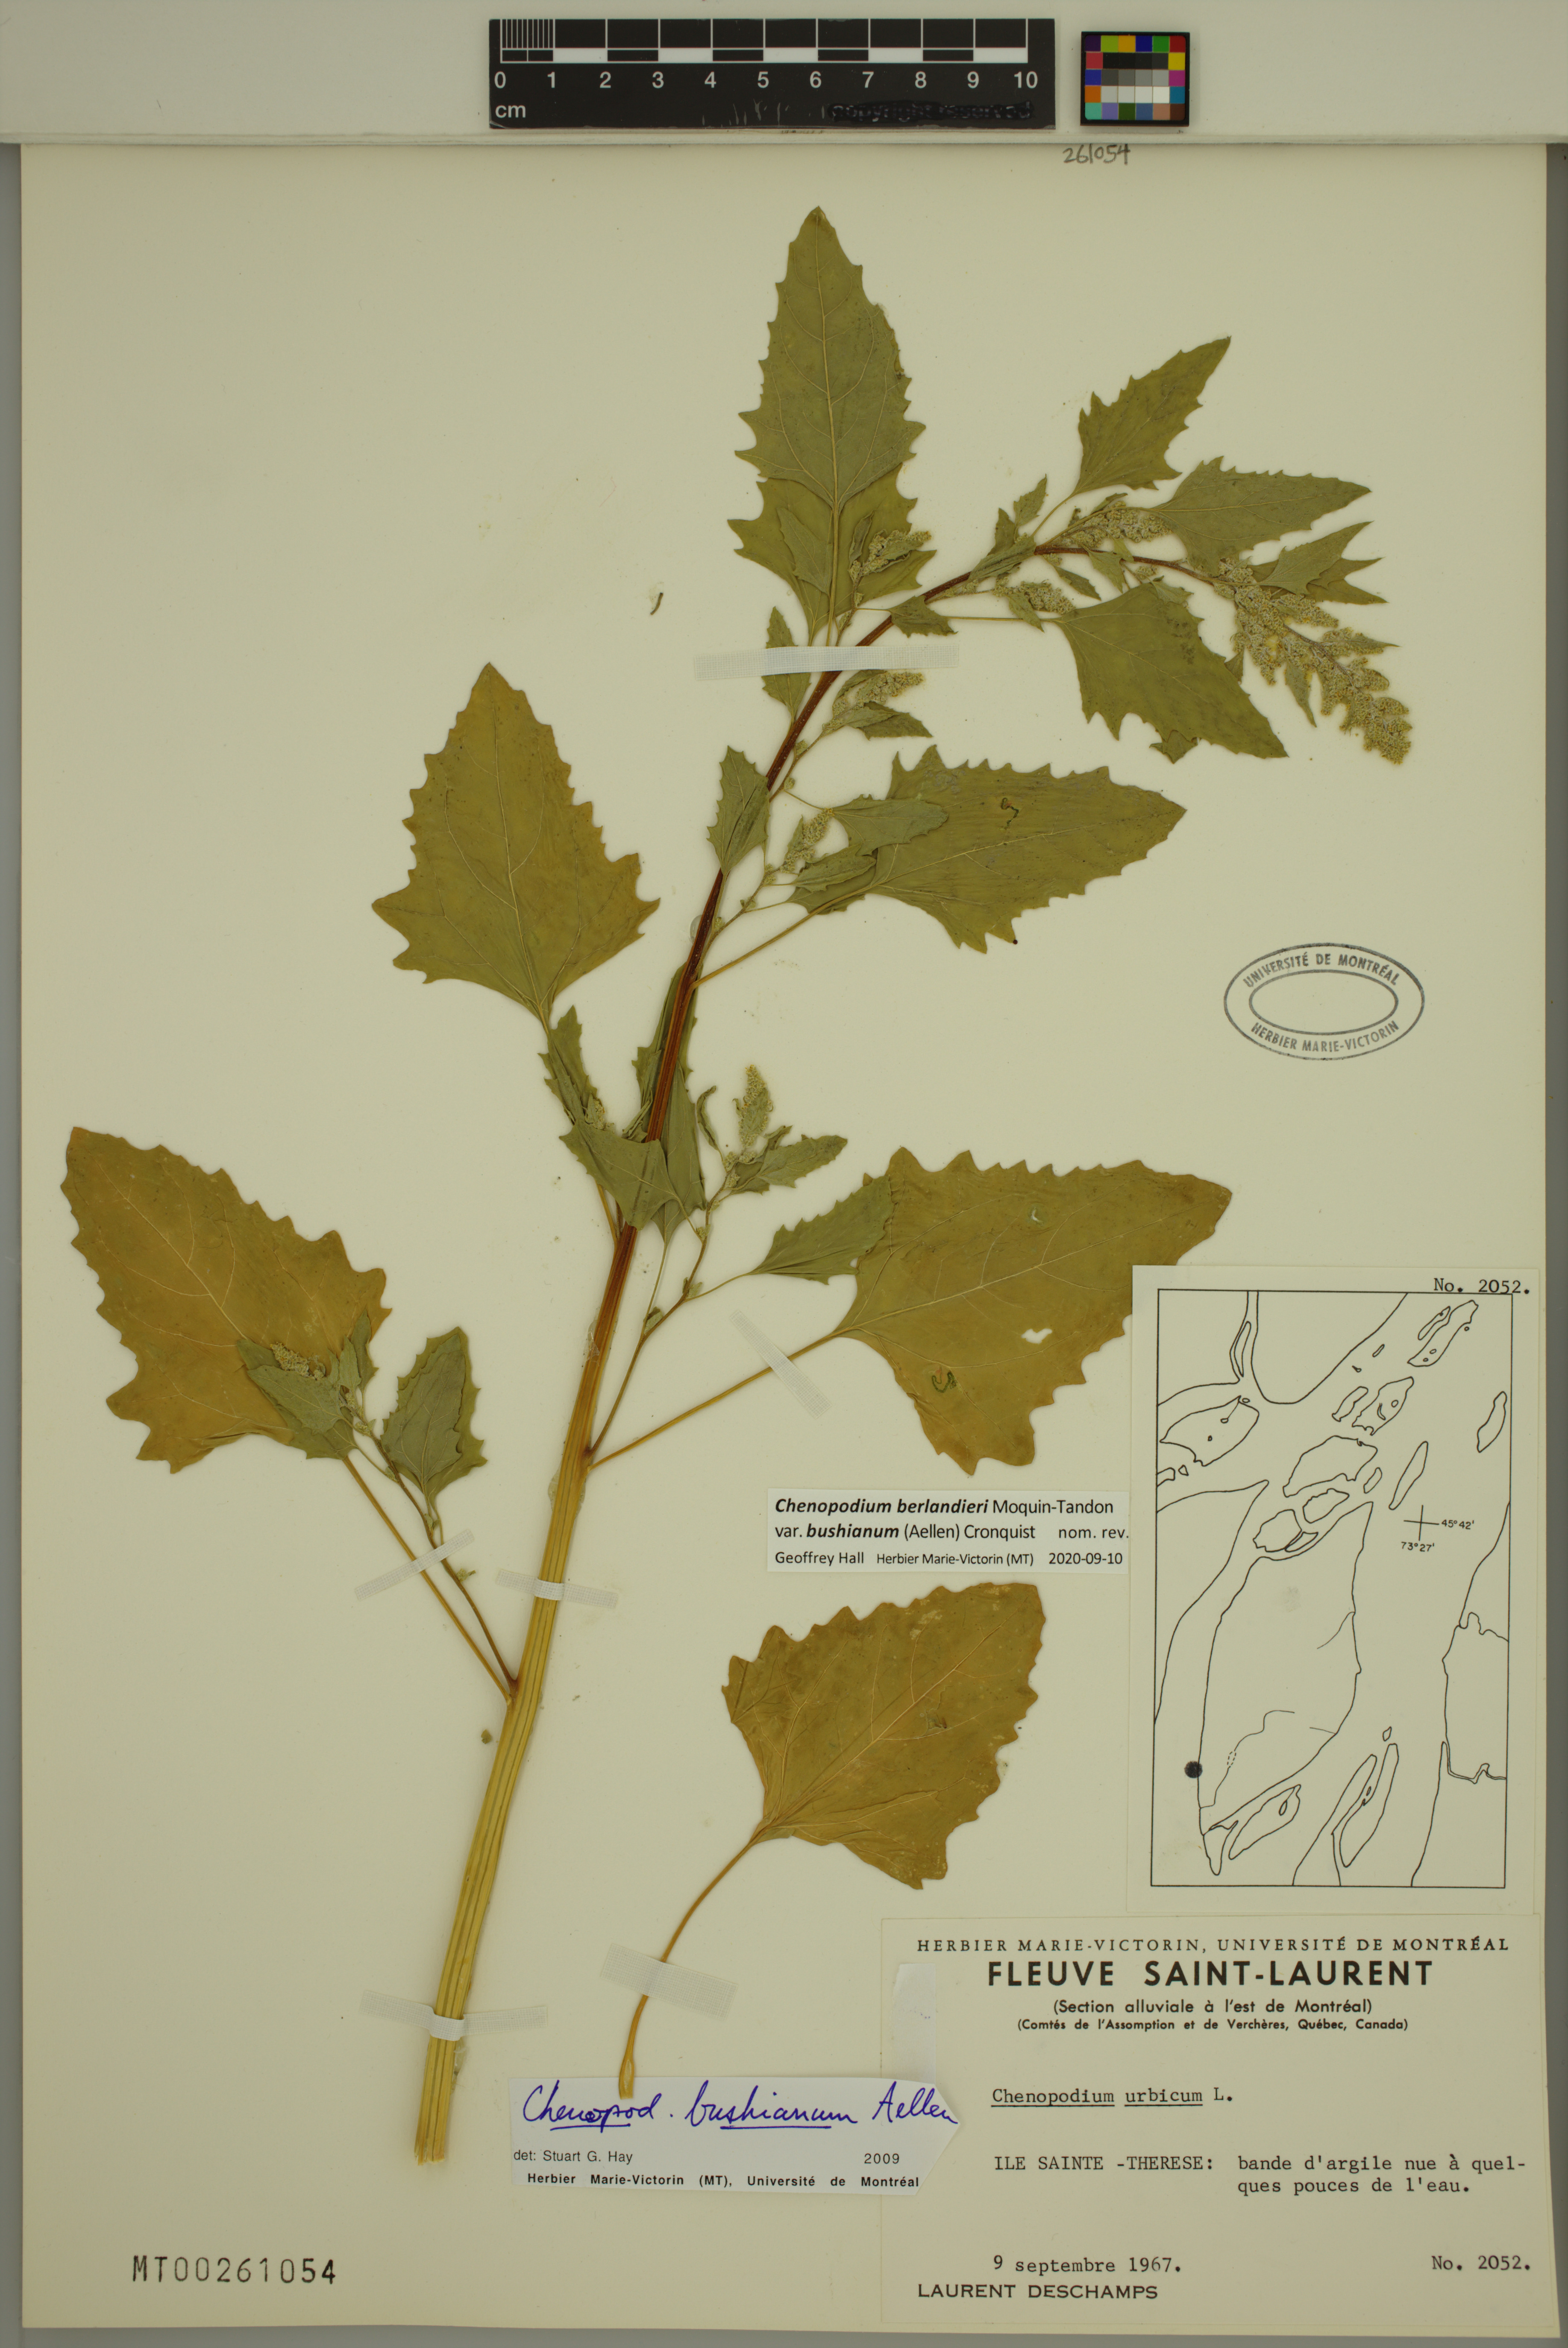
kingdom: Plantae
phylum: Tracheophyta
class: Magnoliopsida
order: Caryophyllales
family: Amaranthaceae
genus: Chenopodium
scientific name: Chenopodium berlandieri
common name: Pit-seed goosefoot
